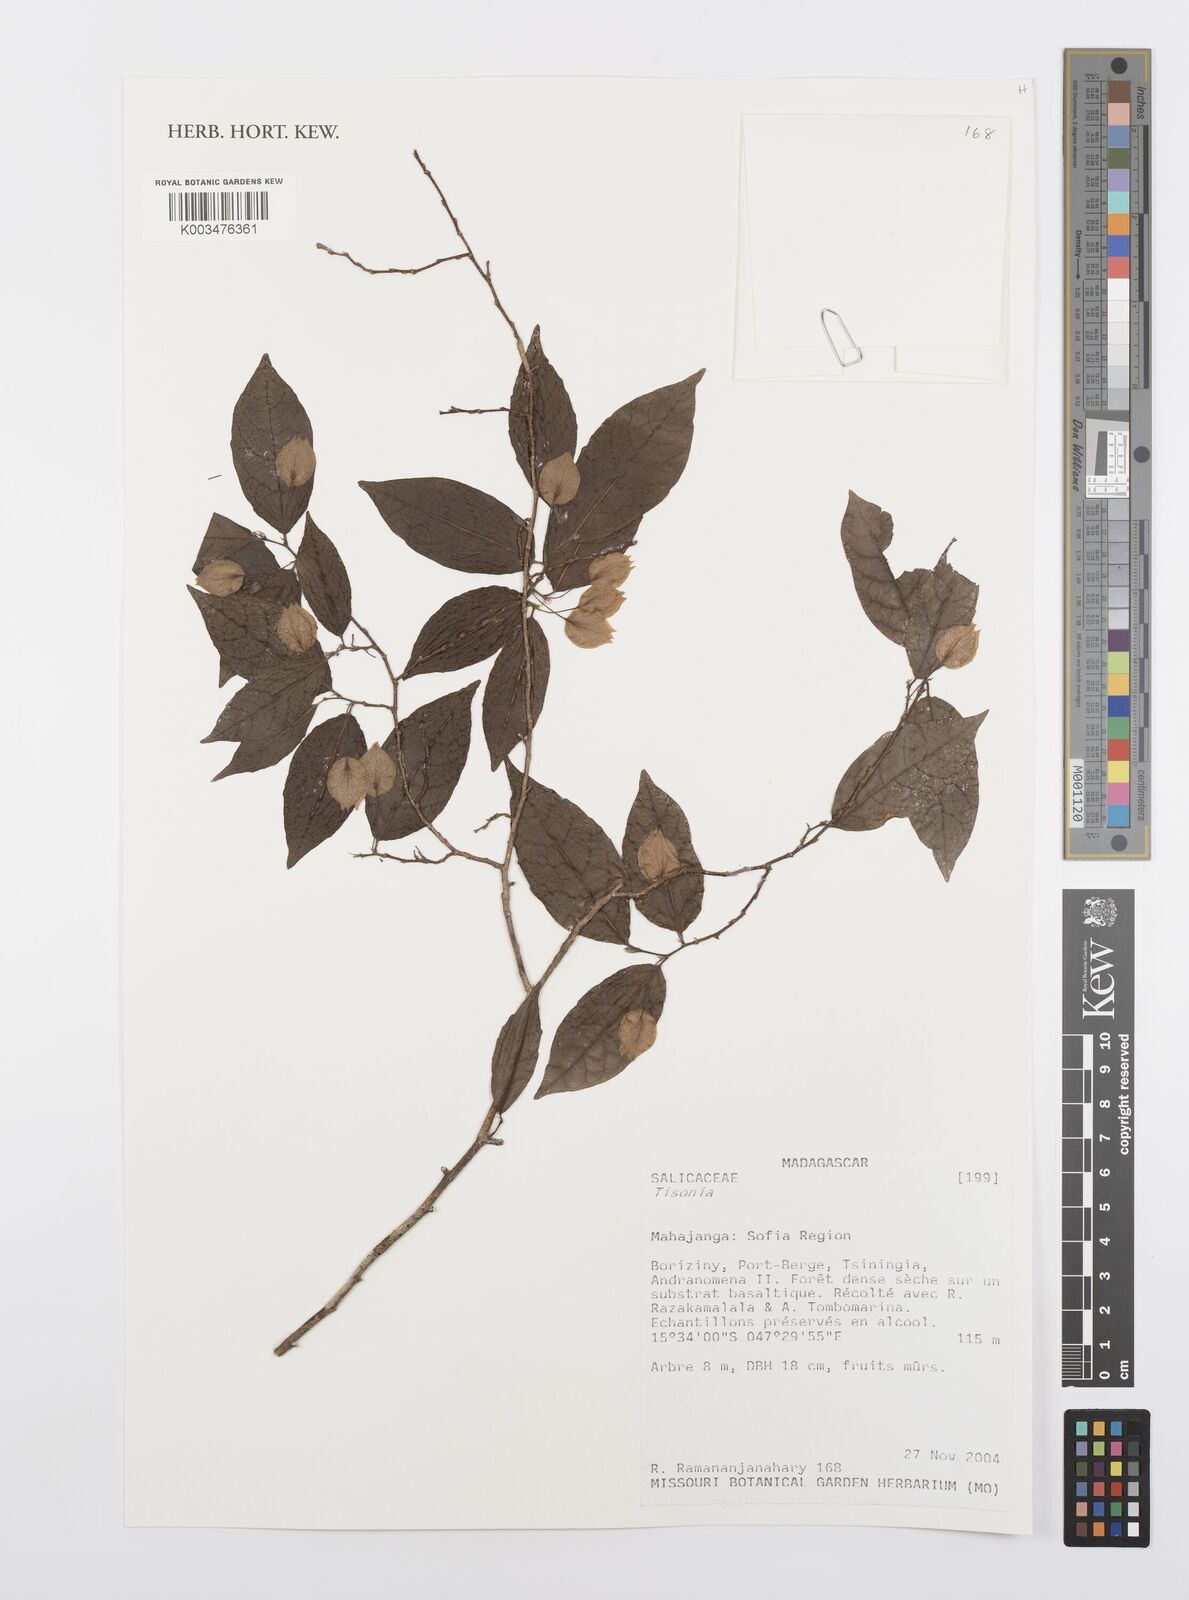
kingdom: Plantae
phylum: Tracheophyta
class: Magnoliopsida
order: Malpighiales
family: Salicaceae
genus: Tisonia
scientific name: Tisonia
